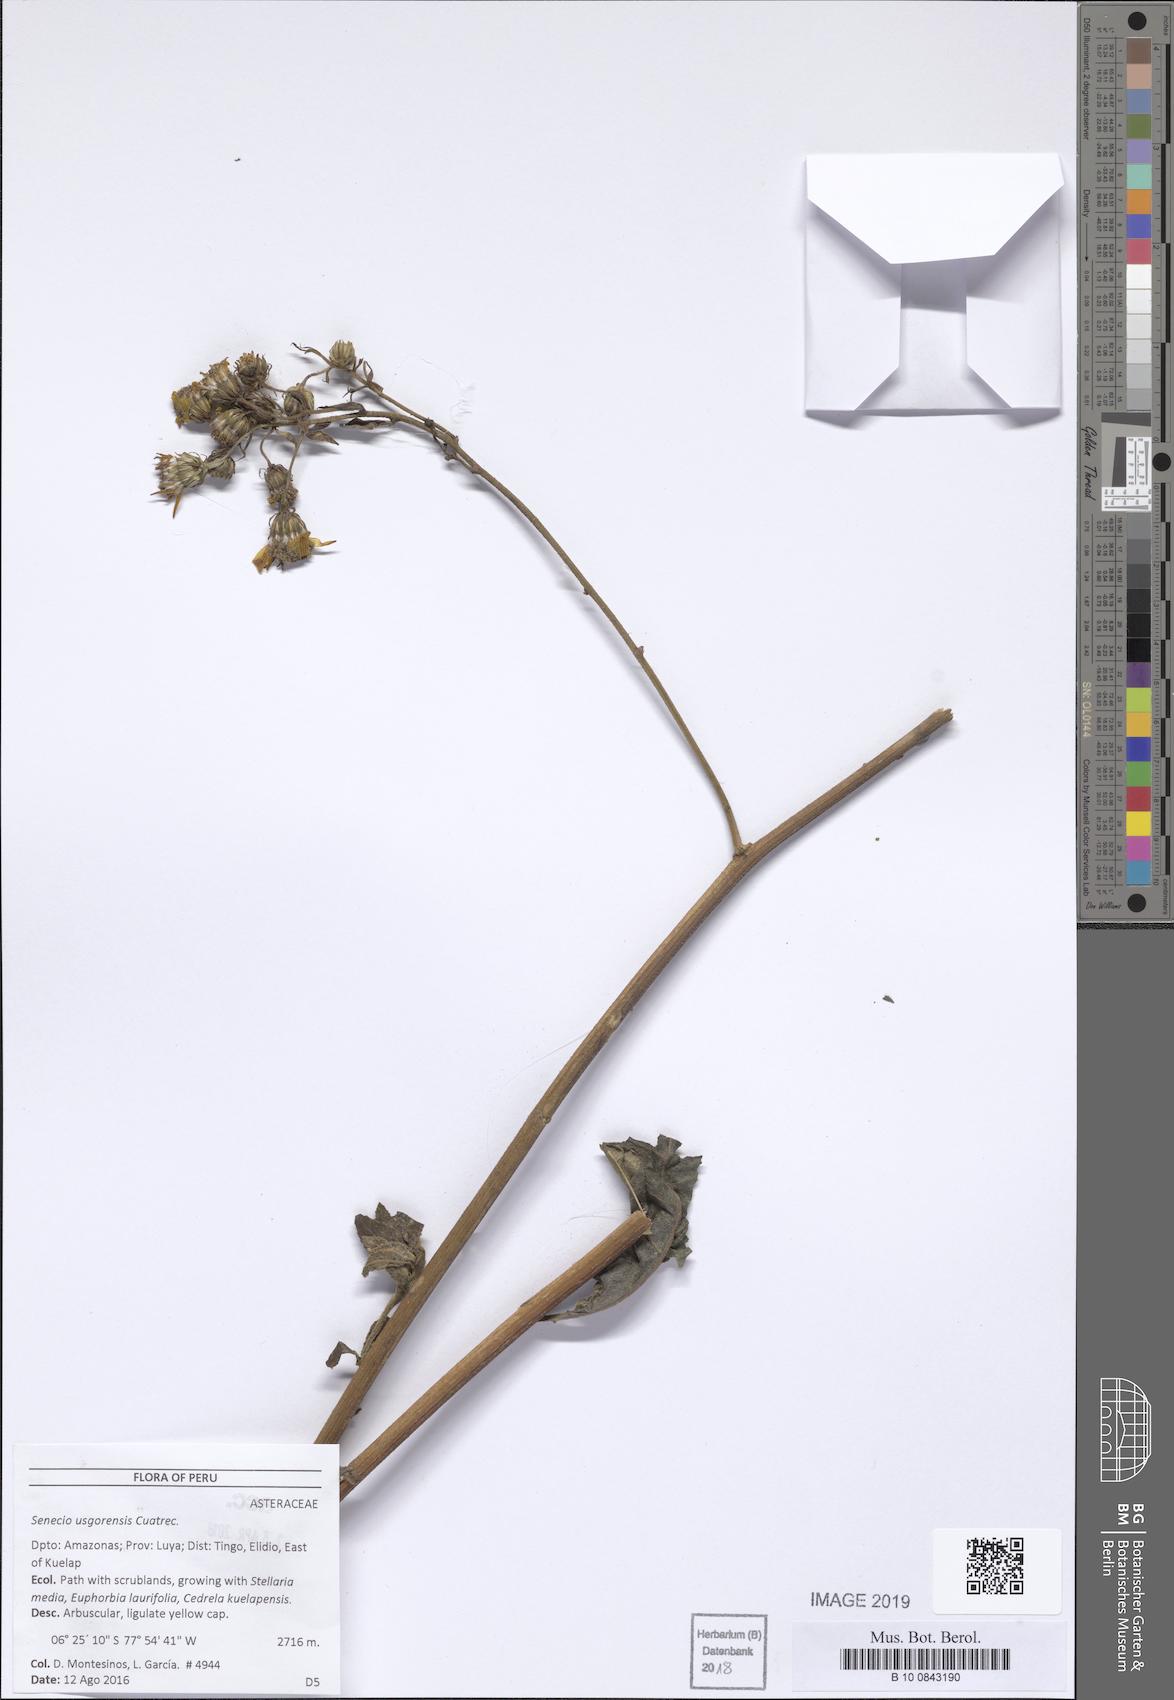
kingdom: Plantae
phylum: Tracheophyta
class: Magnoliopsida
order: Asterales
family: Asteraceae
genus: Dendrophorbium
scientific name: Dendrophorbium elatum
